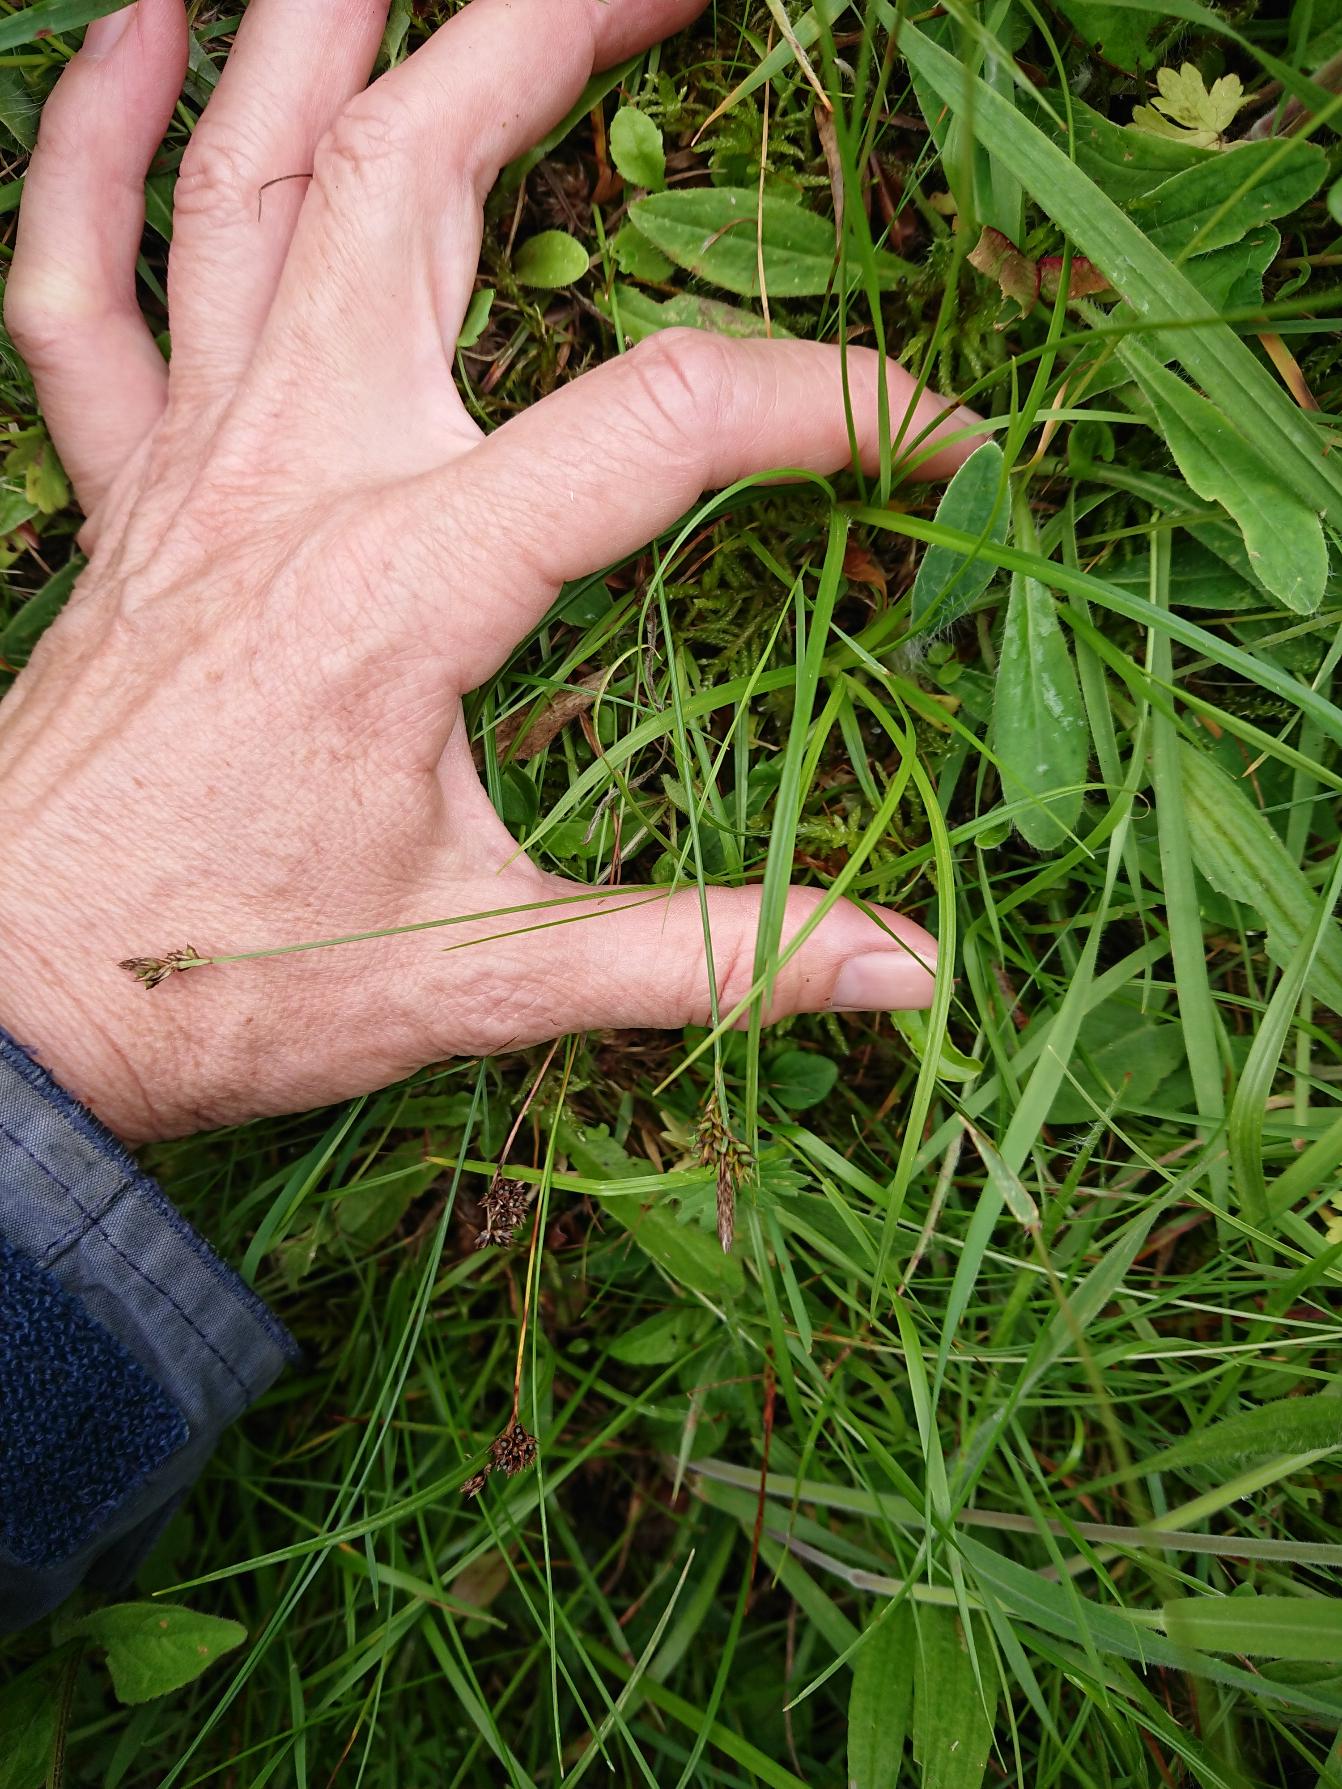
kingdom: Plantae
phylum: Tracheophyta
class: Liliopsida
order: Poales
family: Cyperaceae
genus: Carex
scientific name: Carex caryophyllea
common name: Vår-star
